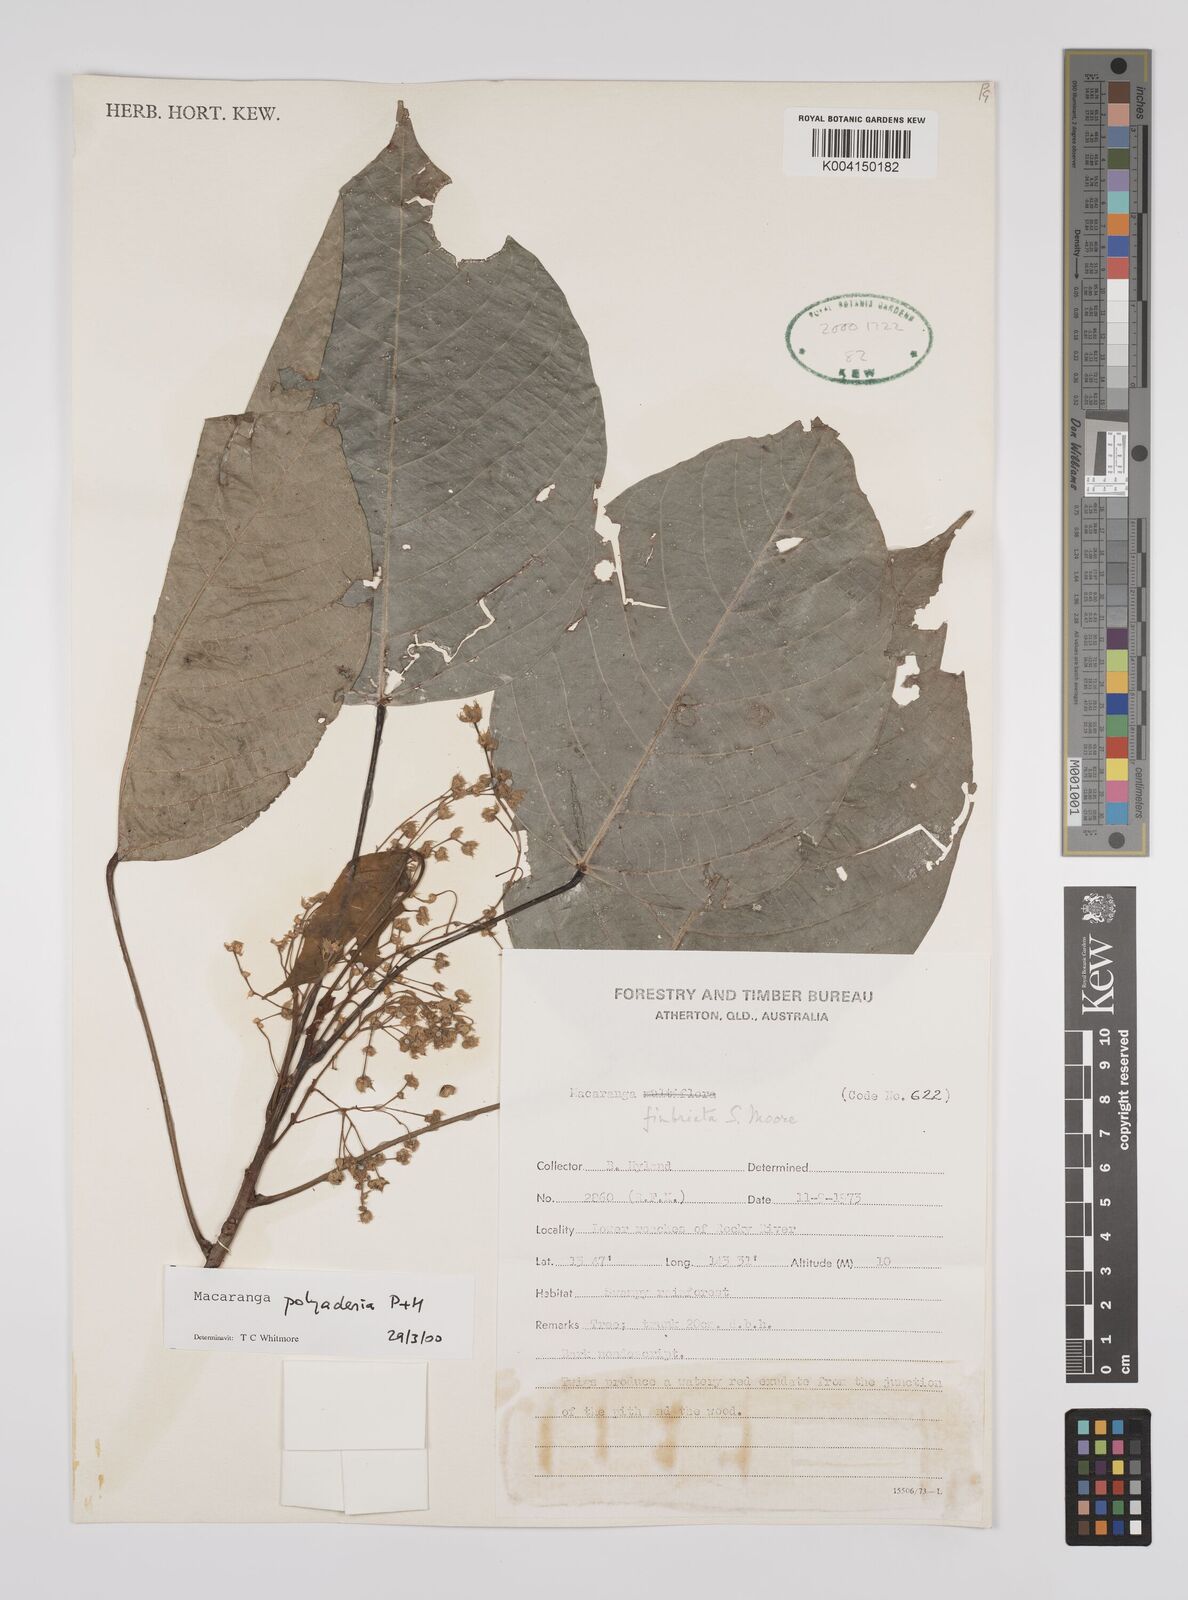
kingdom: Plantae
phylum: Tracheophyta
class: Magnoliopsida
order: Malpighiales
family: Euphorbiaceae
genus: Macaranga
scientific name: Macaranga polyadenia
